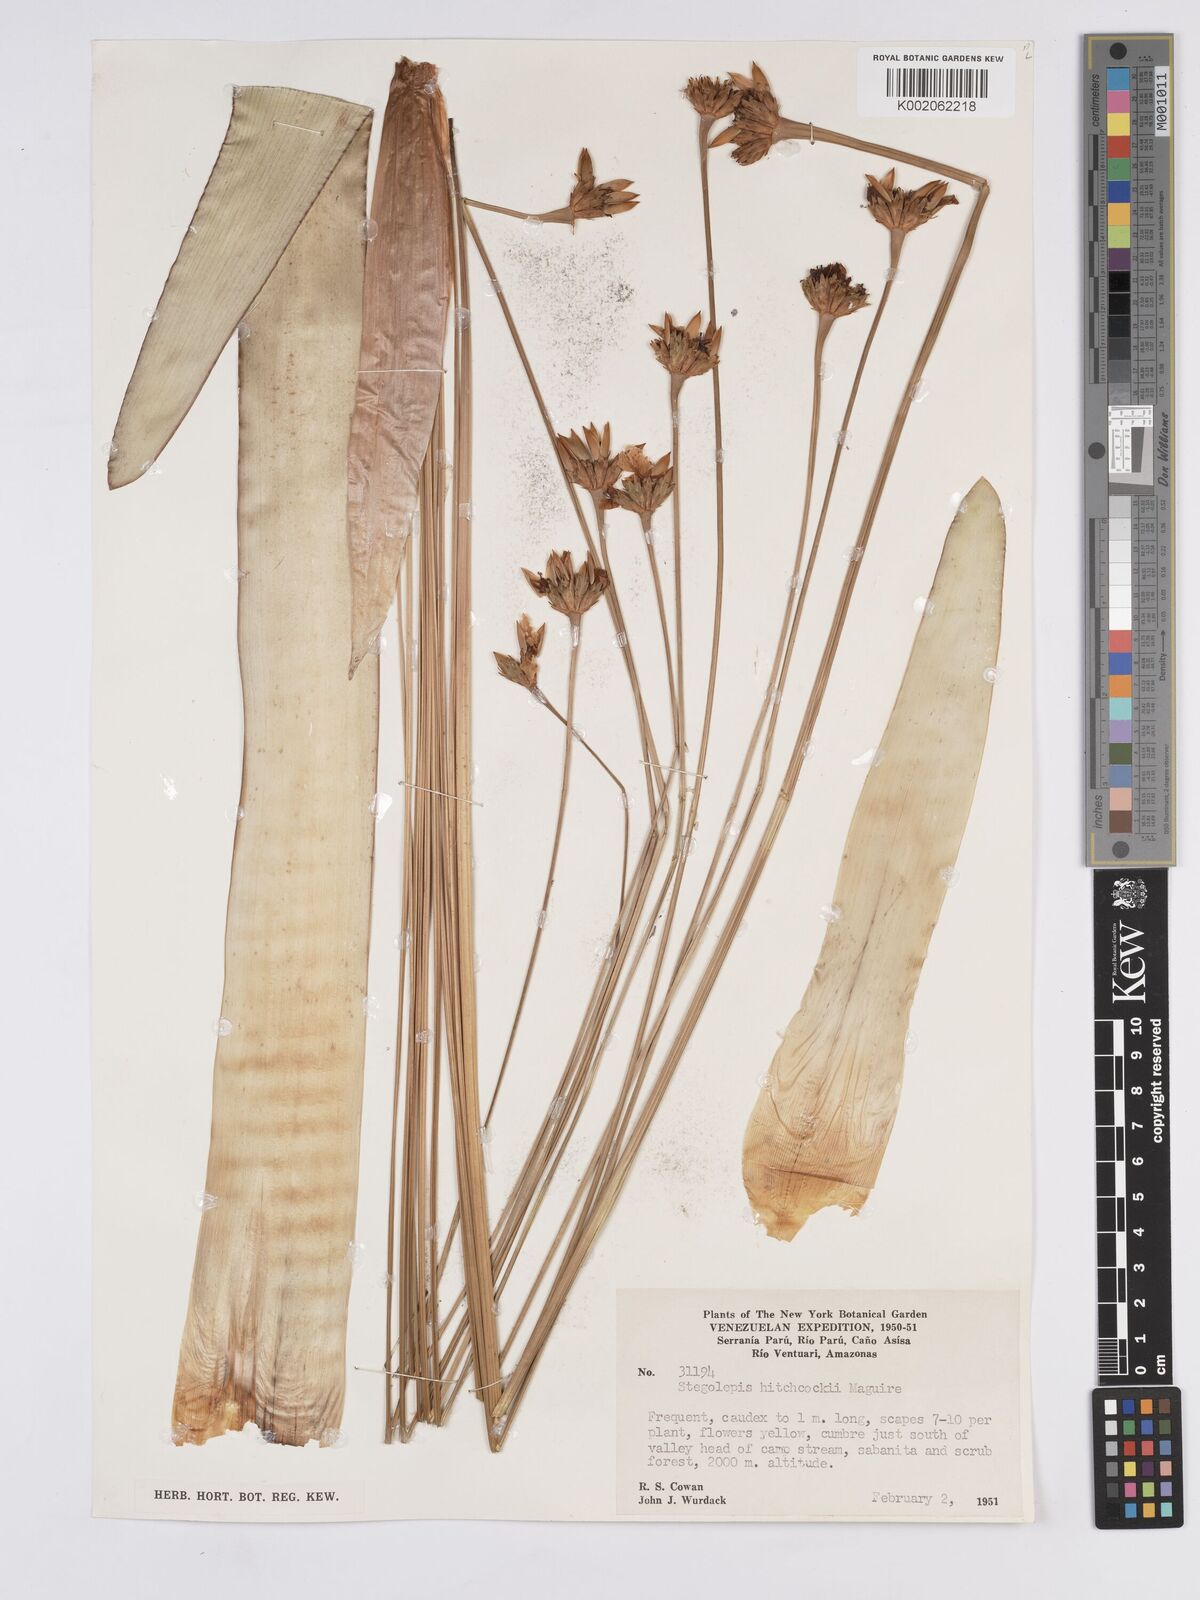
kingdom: Plantae
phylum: Tracheophyta
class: Liliopsida
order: Poales
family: Rapateaceae
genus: Stegolepis
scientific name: Stegolepis hitchcockii
